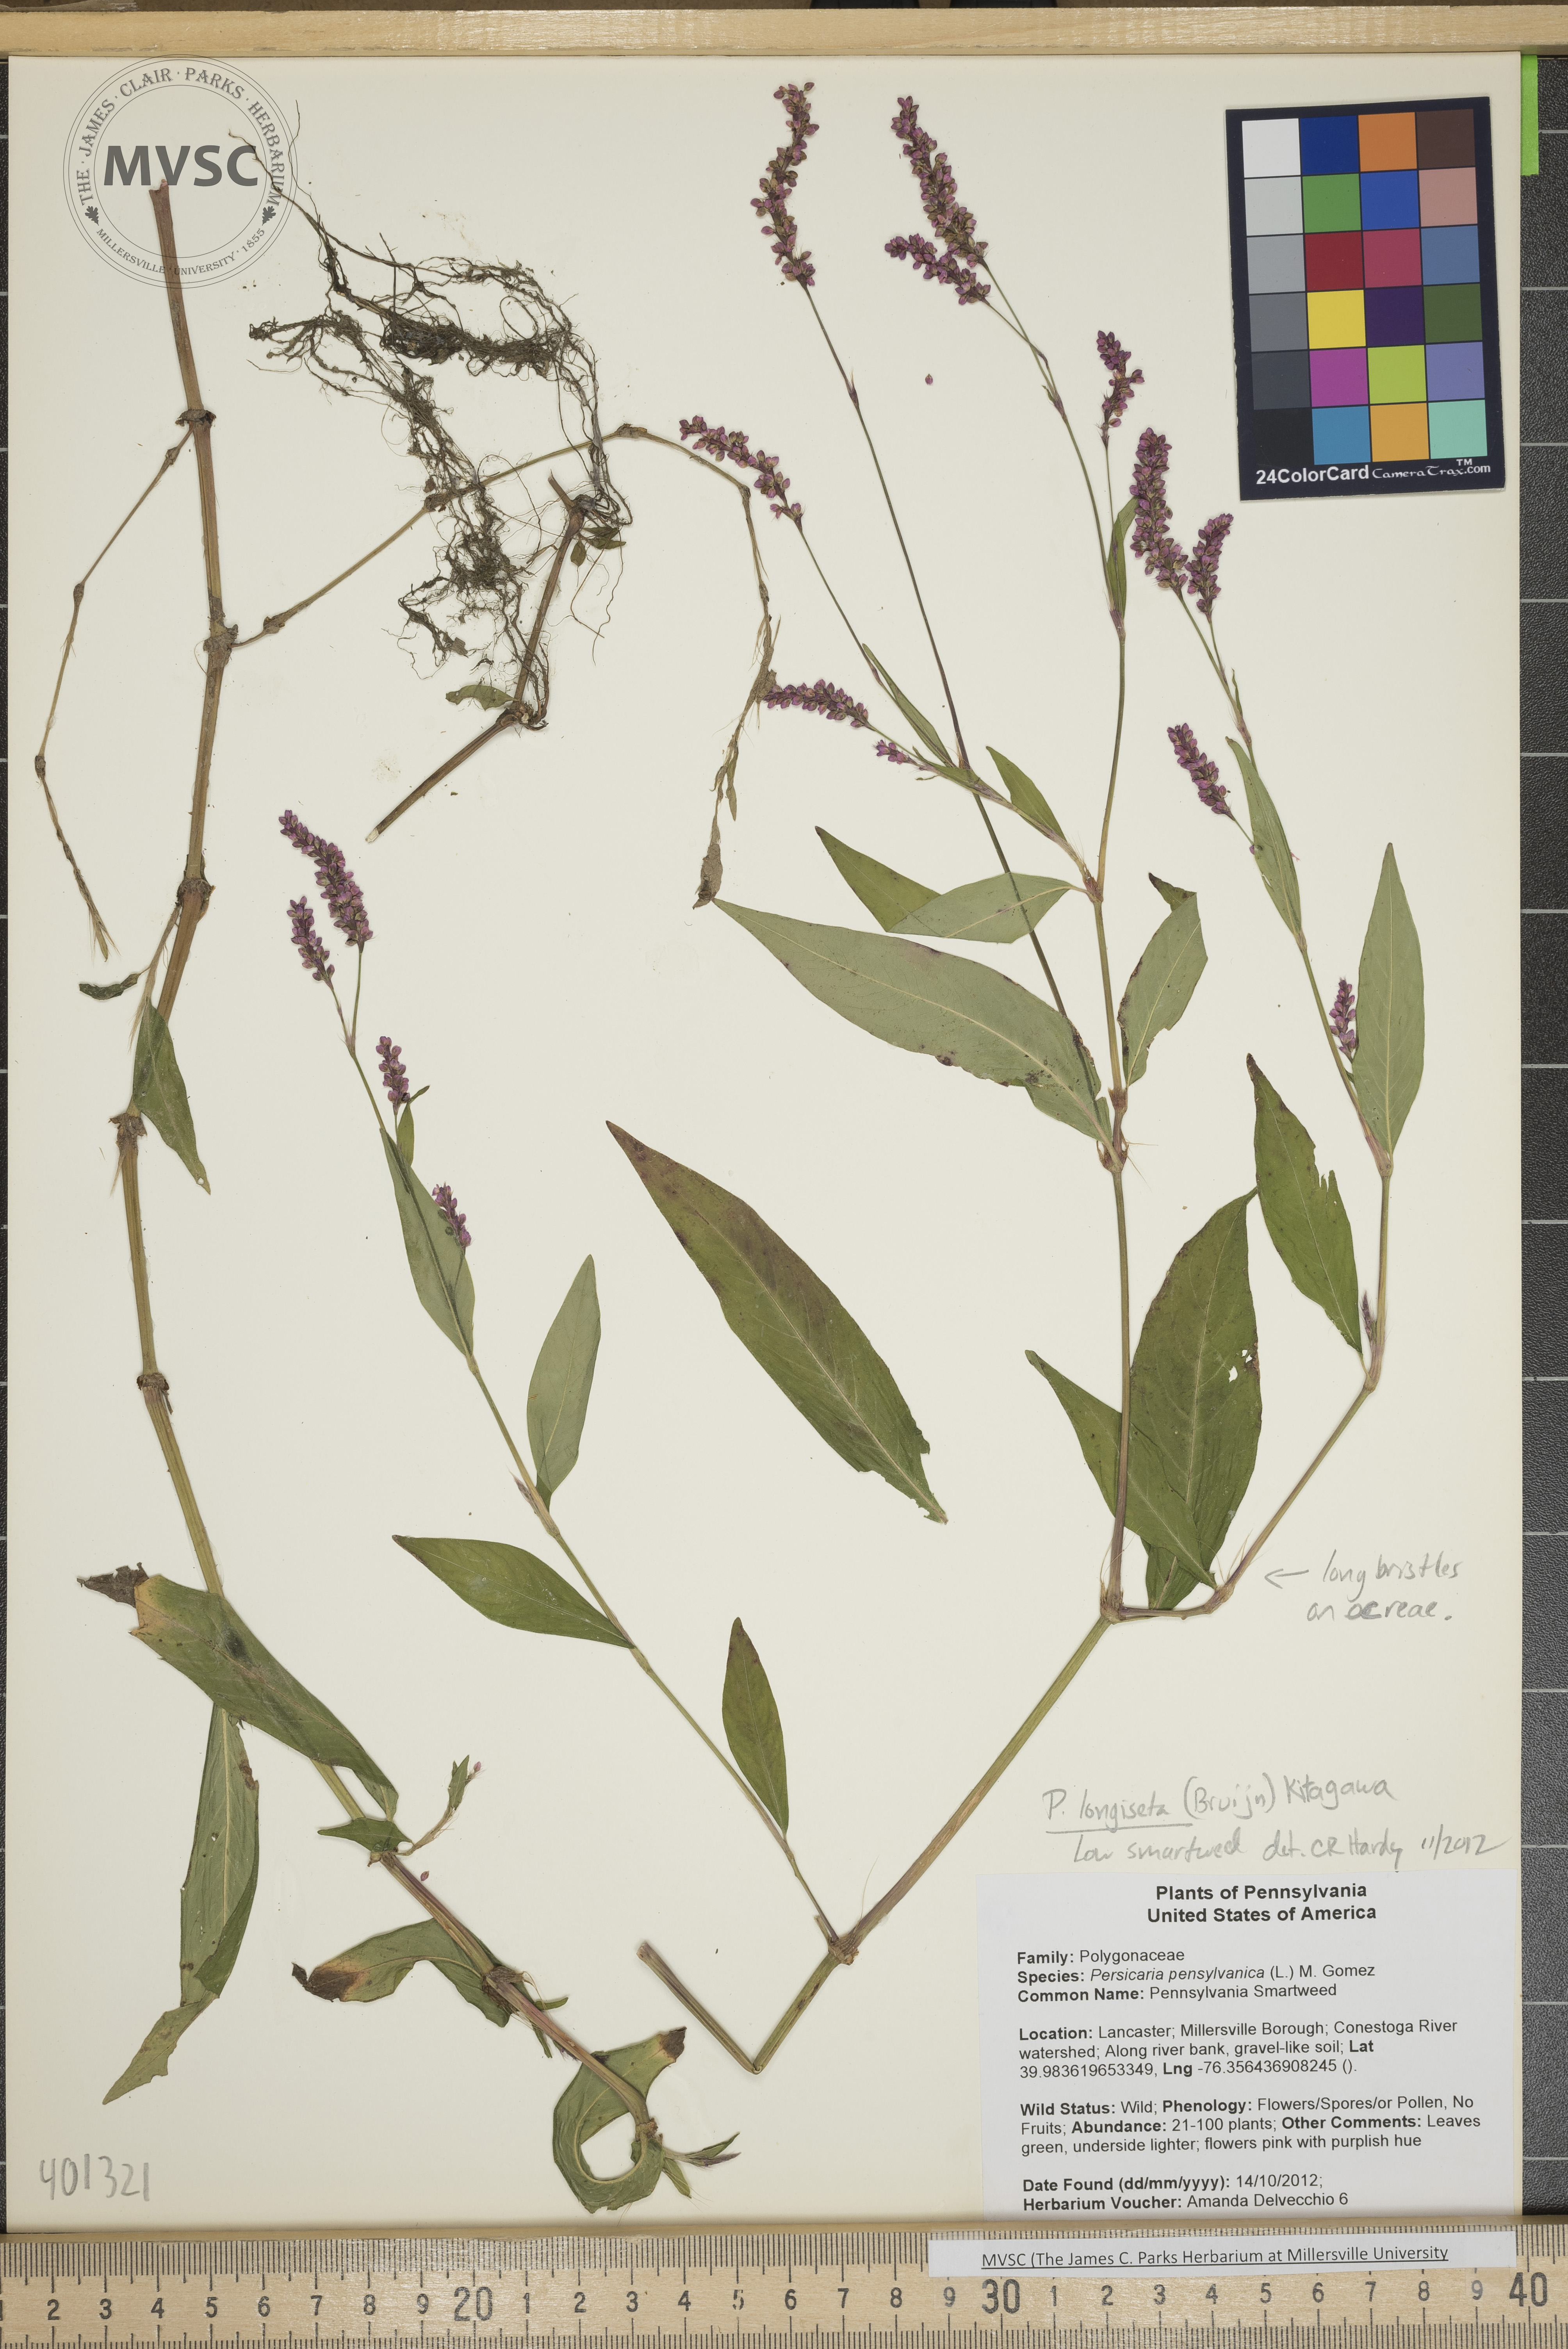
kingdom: Plantae
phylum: Tracheophyta
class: Magnoliopsida
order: Caryophyllales
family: Polygonaceae
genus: Persicaria
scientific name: Persicaria longiseta
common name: Low Smartweed
